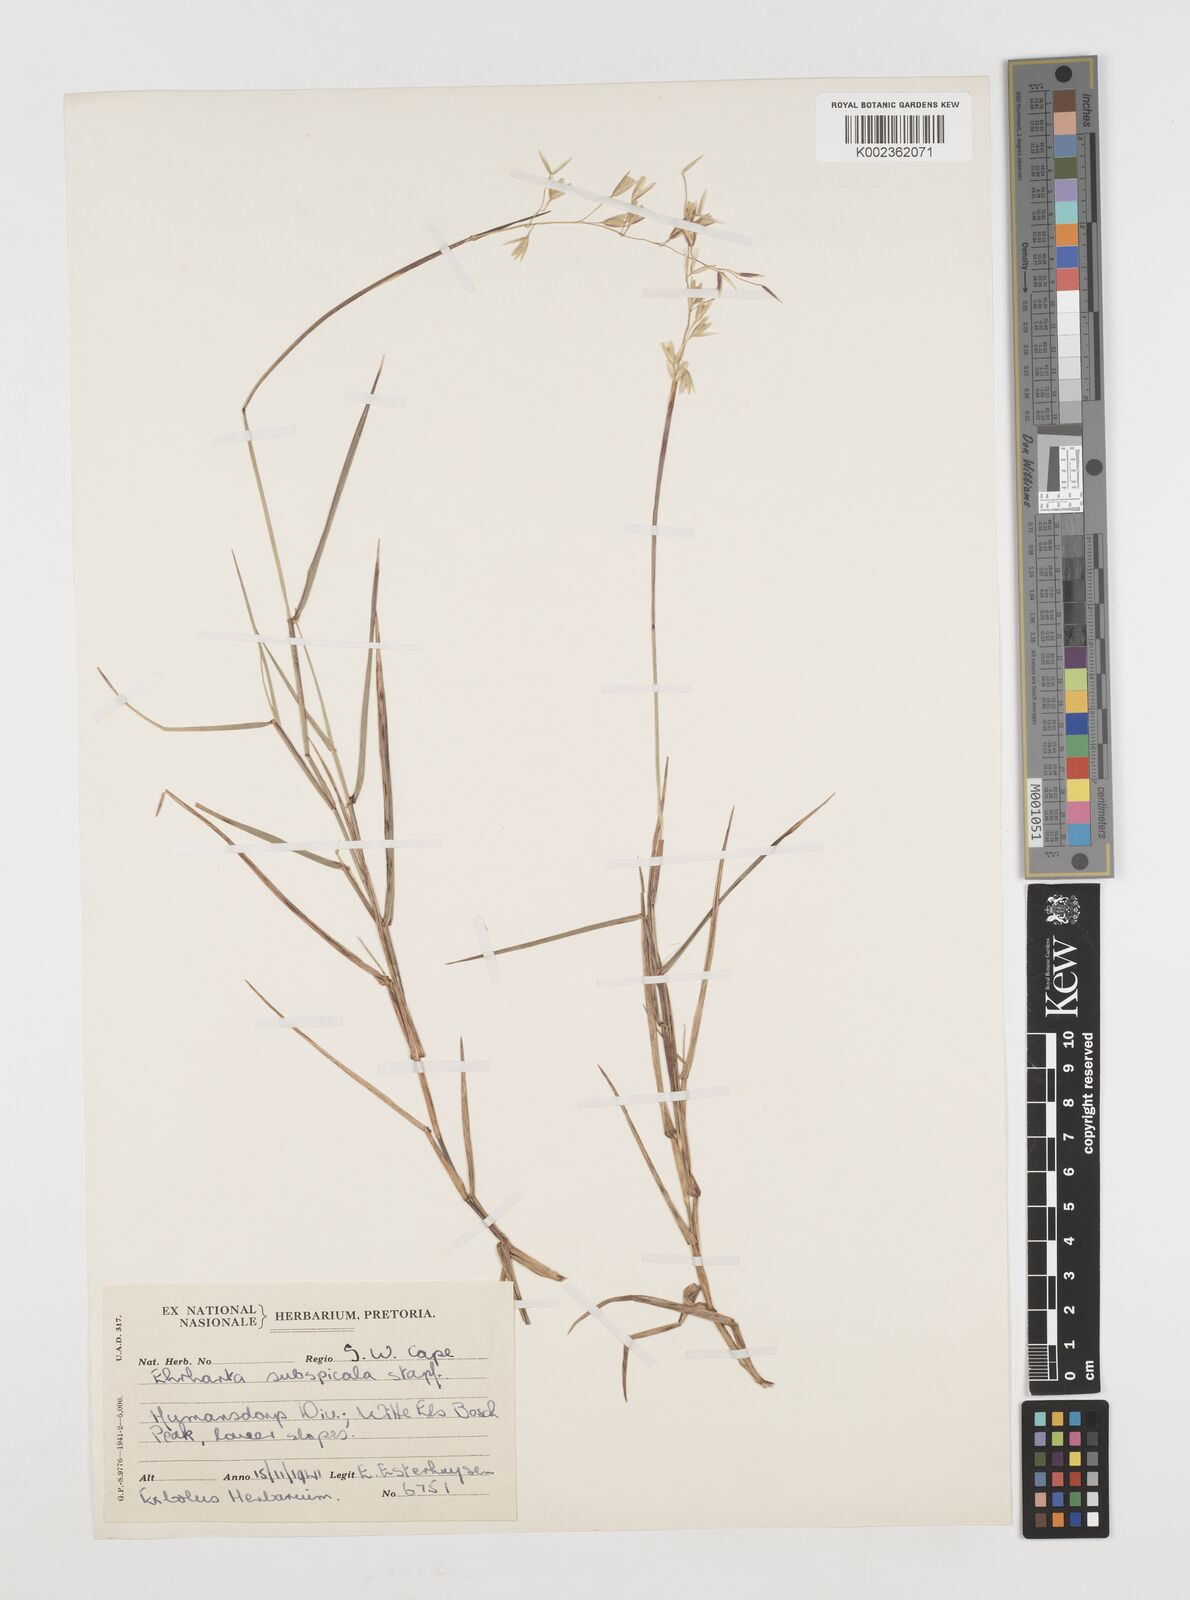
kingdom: Plantae
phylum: Tracheophyta
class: Liliopsida
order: Poales
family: Poaceae
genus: Ehrharta
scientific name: Ehrharta rehmannii
